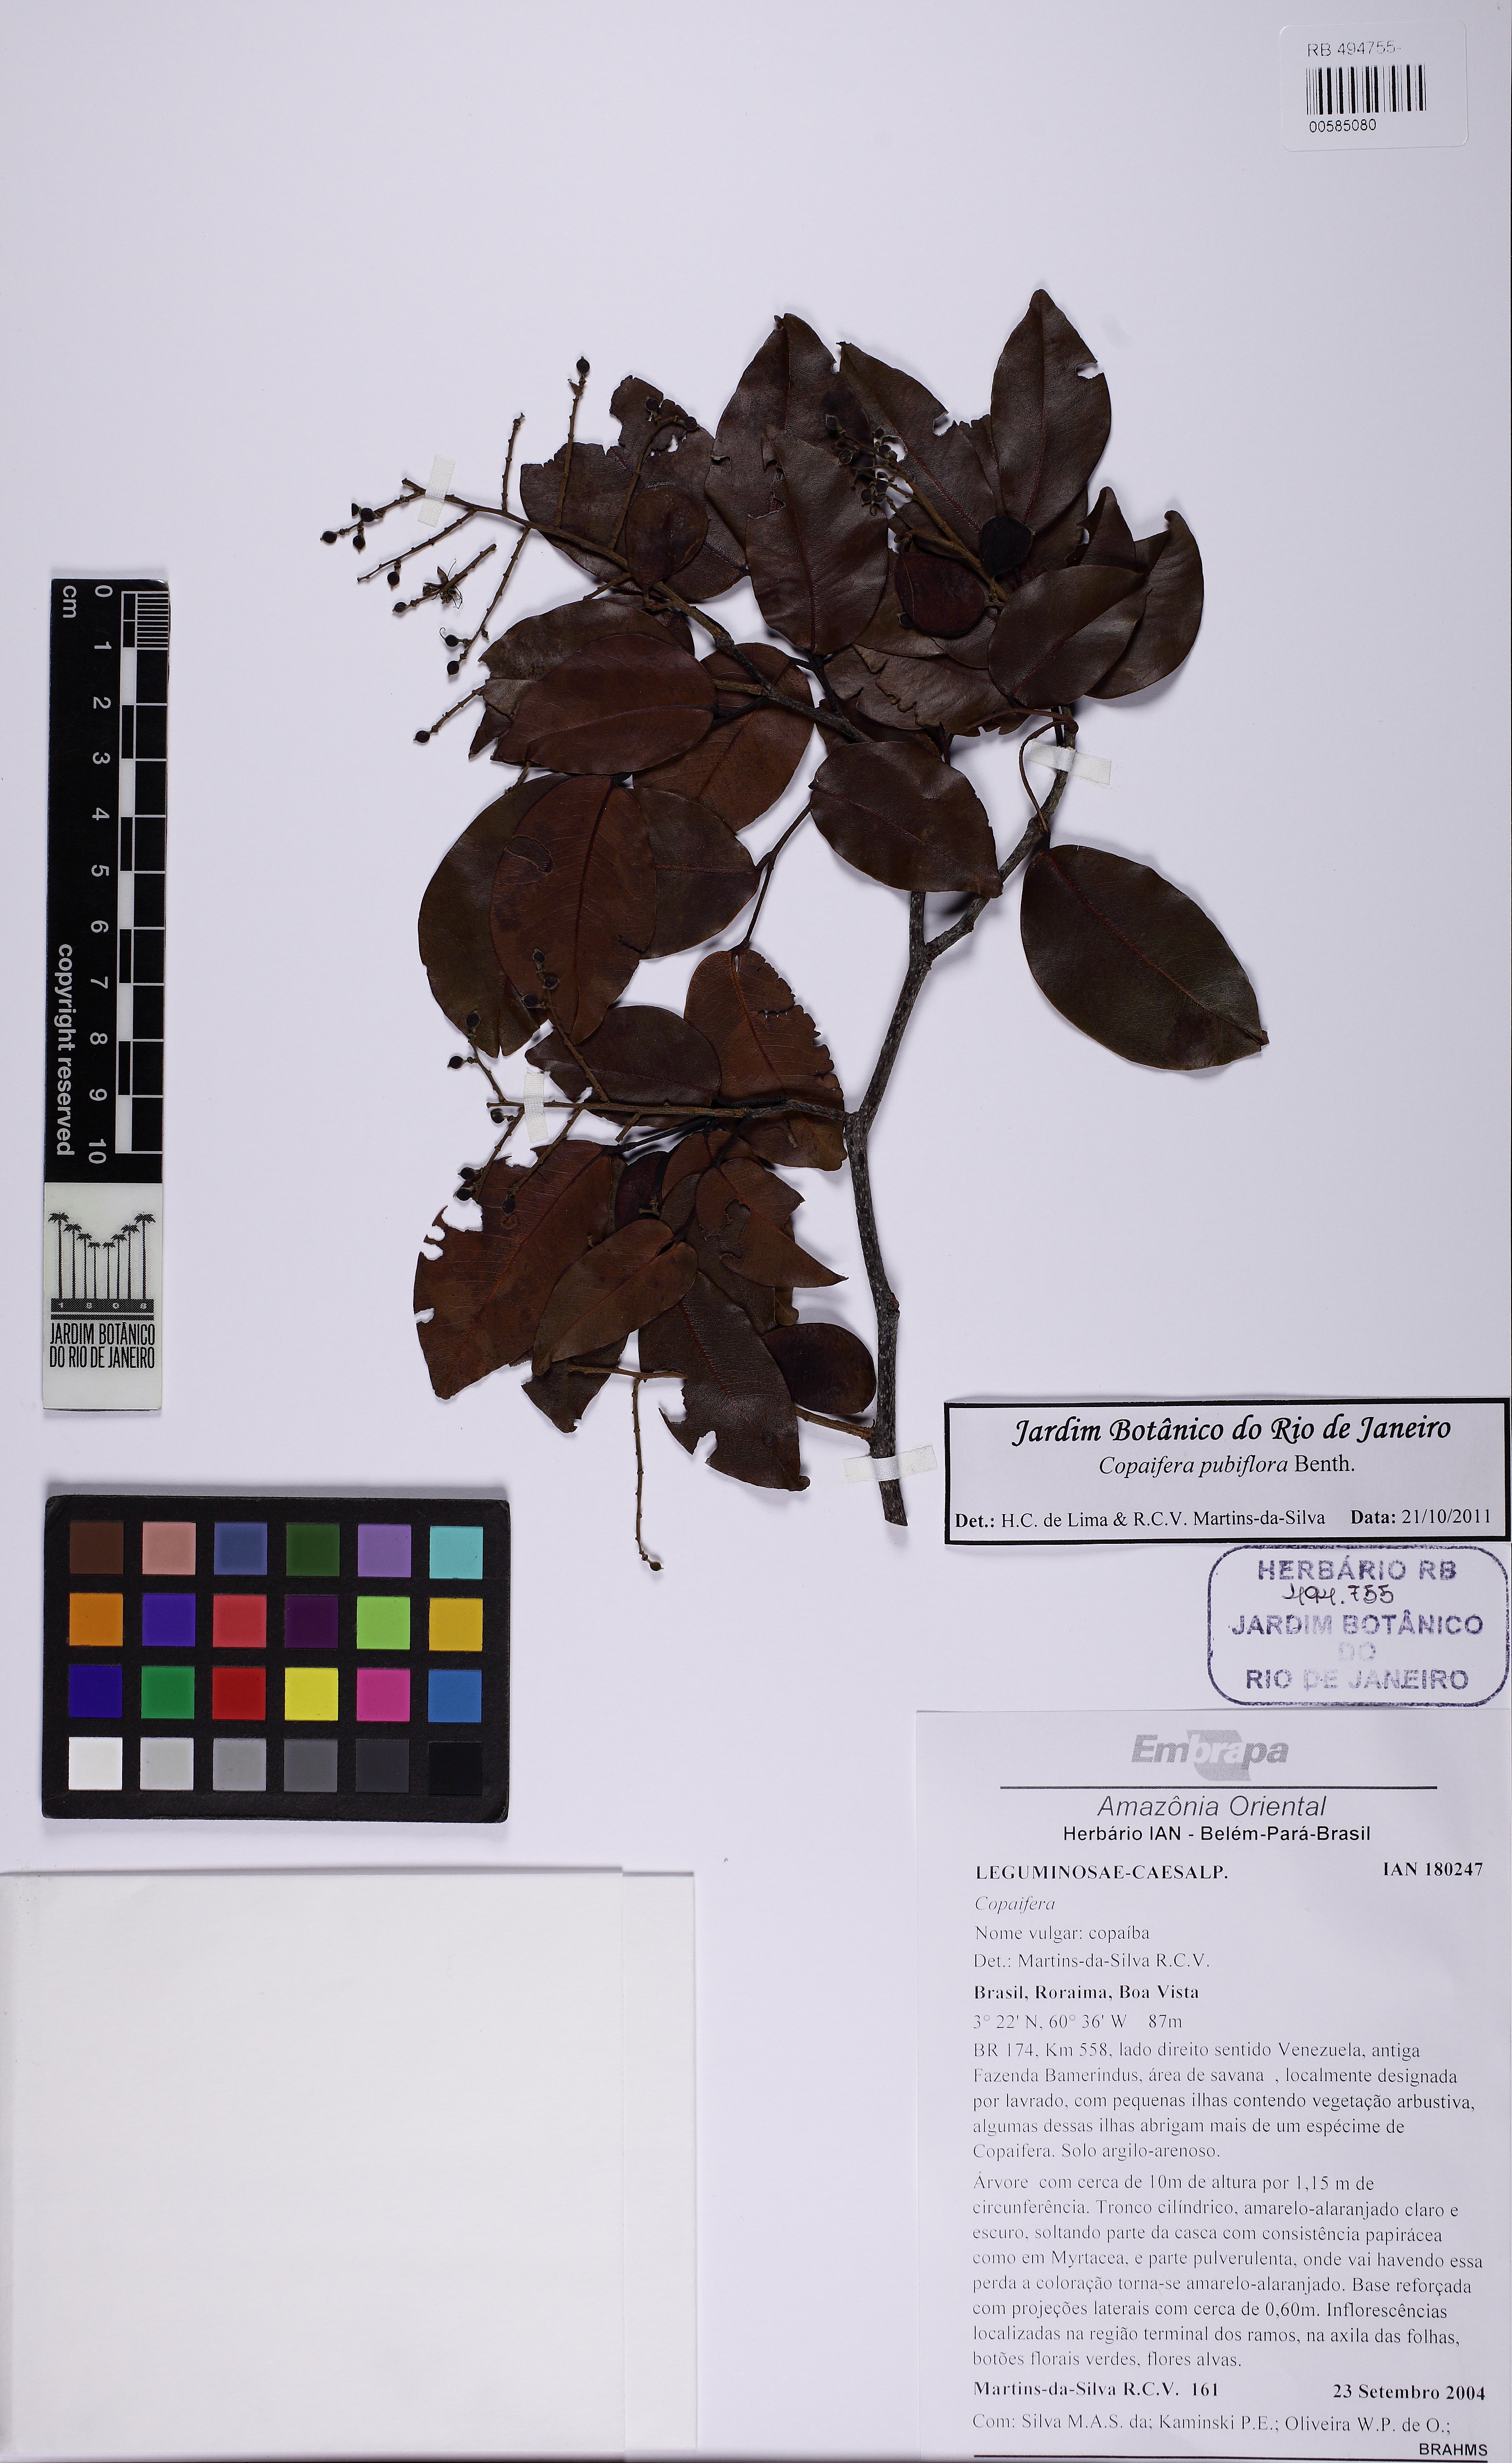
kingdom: Plantae
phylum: Tracheophyta
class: Magnoliopsida
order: Fabales
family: Fabaceae
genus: Copaifera
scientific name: Copaifera pubiflora
